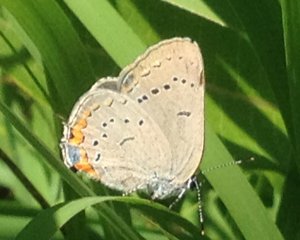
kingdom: Animalia
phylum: Arthropoda
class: Insecta
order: Lepidoptera
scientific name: Lepidoptera
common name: Butterflies
